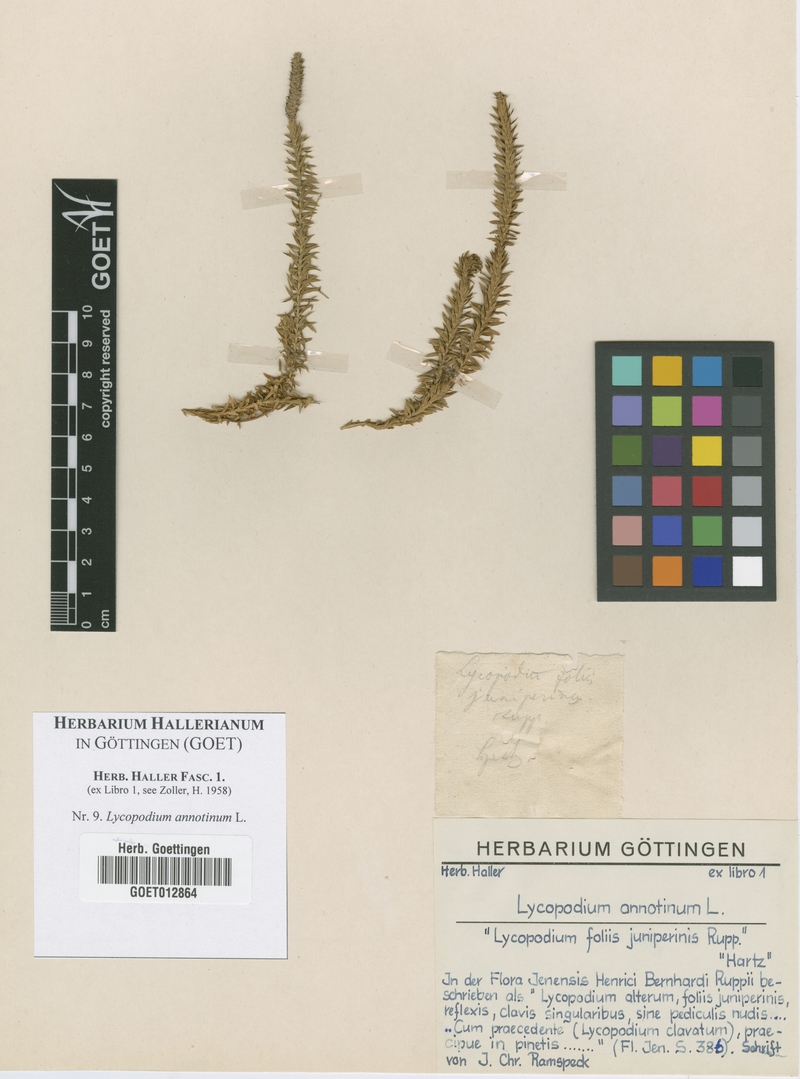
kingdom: Plantae
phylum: Tracheophyta
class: Lycopodiopsida
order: Lycopodiales
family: Lycopodiaceae
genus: Spinulum
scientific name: Spinulum annotinum
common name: Interrupted club-moss
